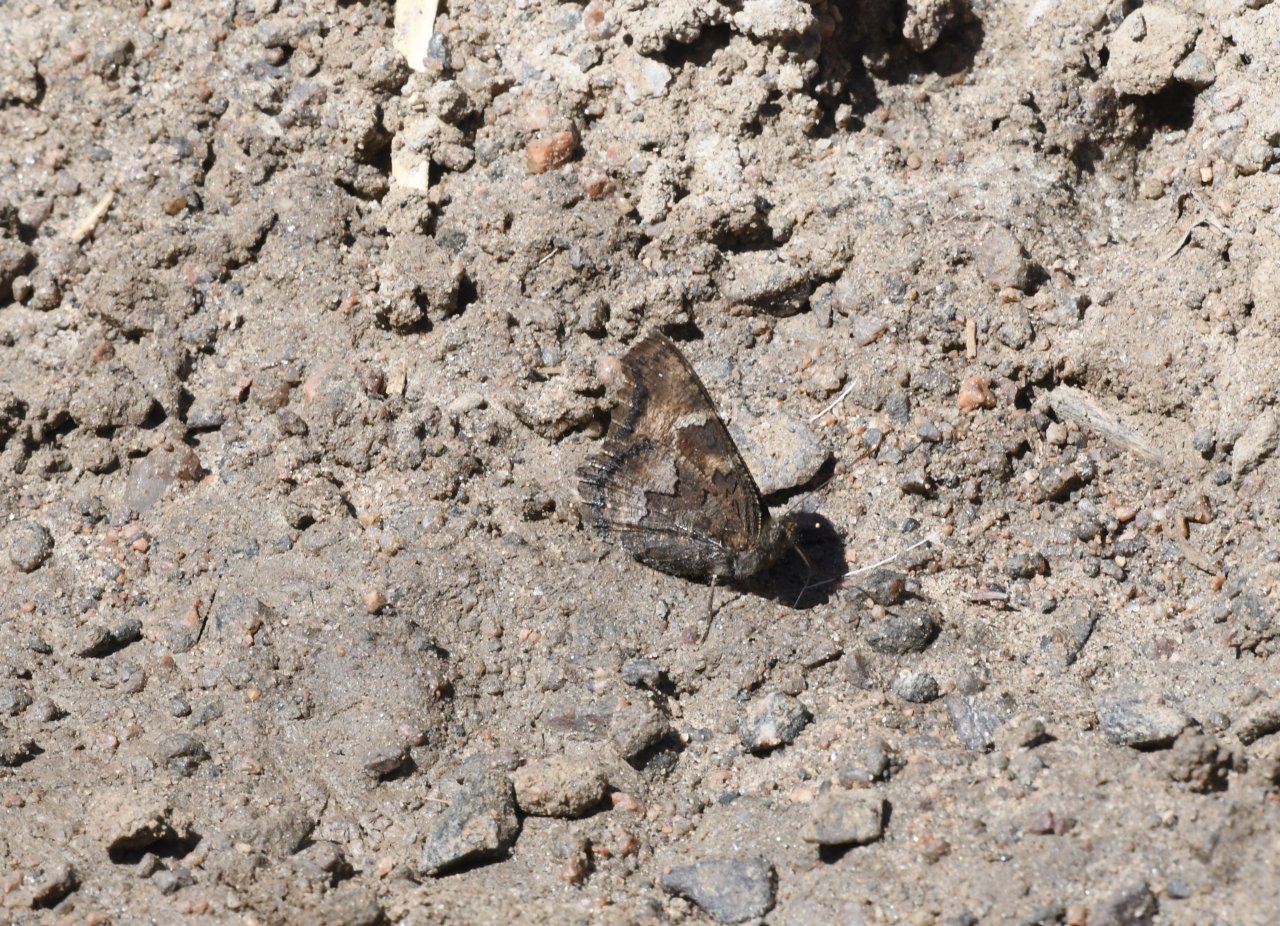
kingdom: Animalia
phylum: Arthropoda
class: Insecta
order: Lepidoptera
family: Nymphalidae
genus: Nymphalis
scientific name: Nymphalis californica
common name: California Tortoiseshell
